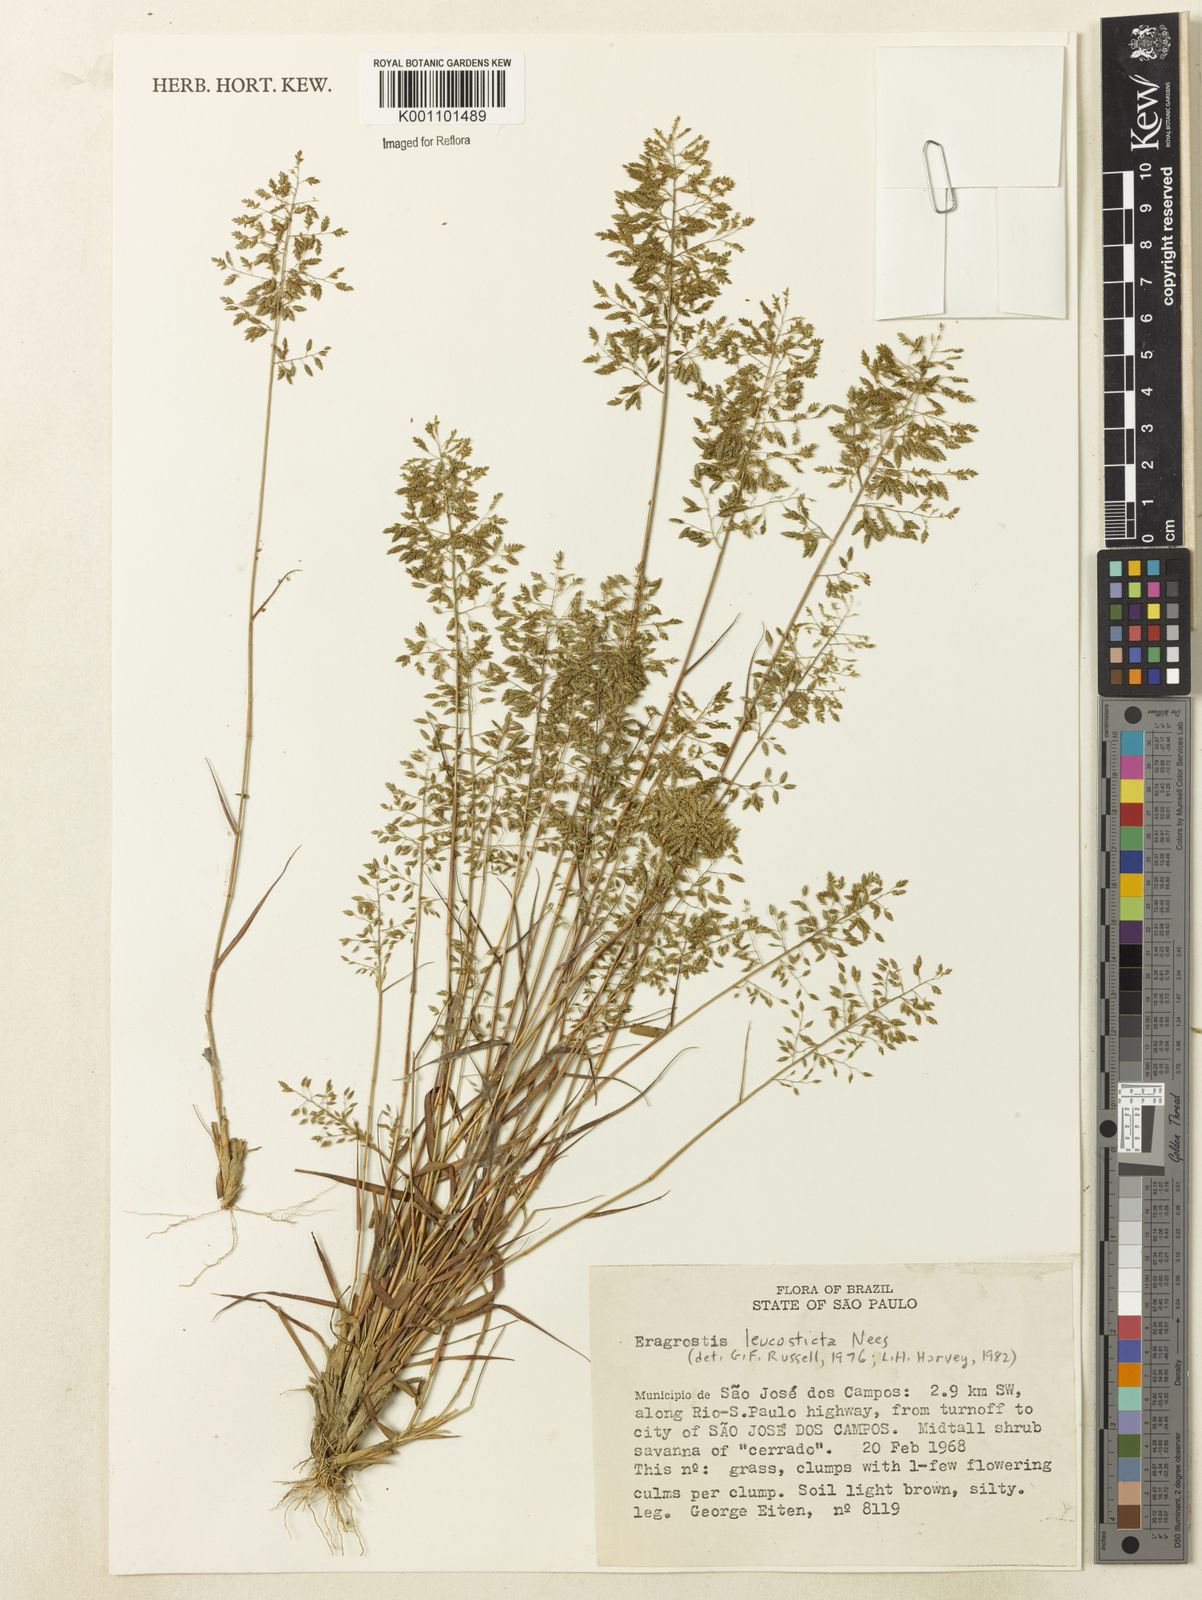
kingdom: Plantae
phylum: Tracheophyta
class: Liliopsida
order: Poales
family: Poaceae
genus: Eragrostis
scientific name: Eragrostis
